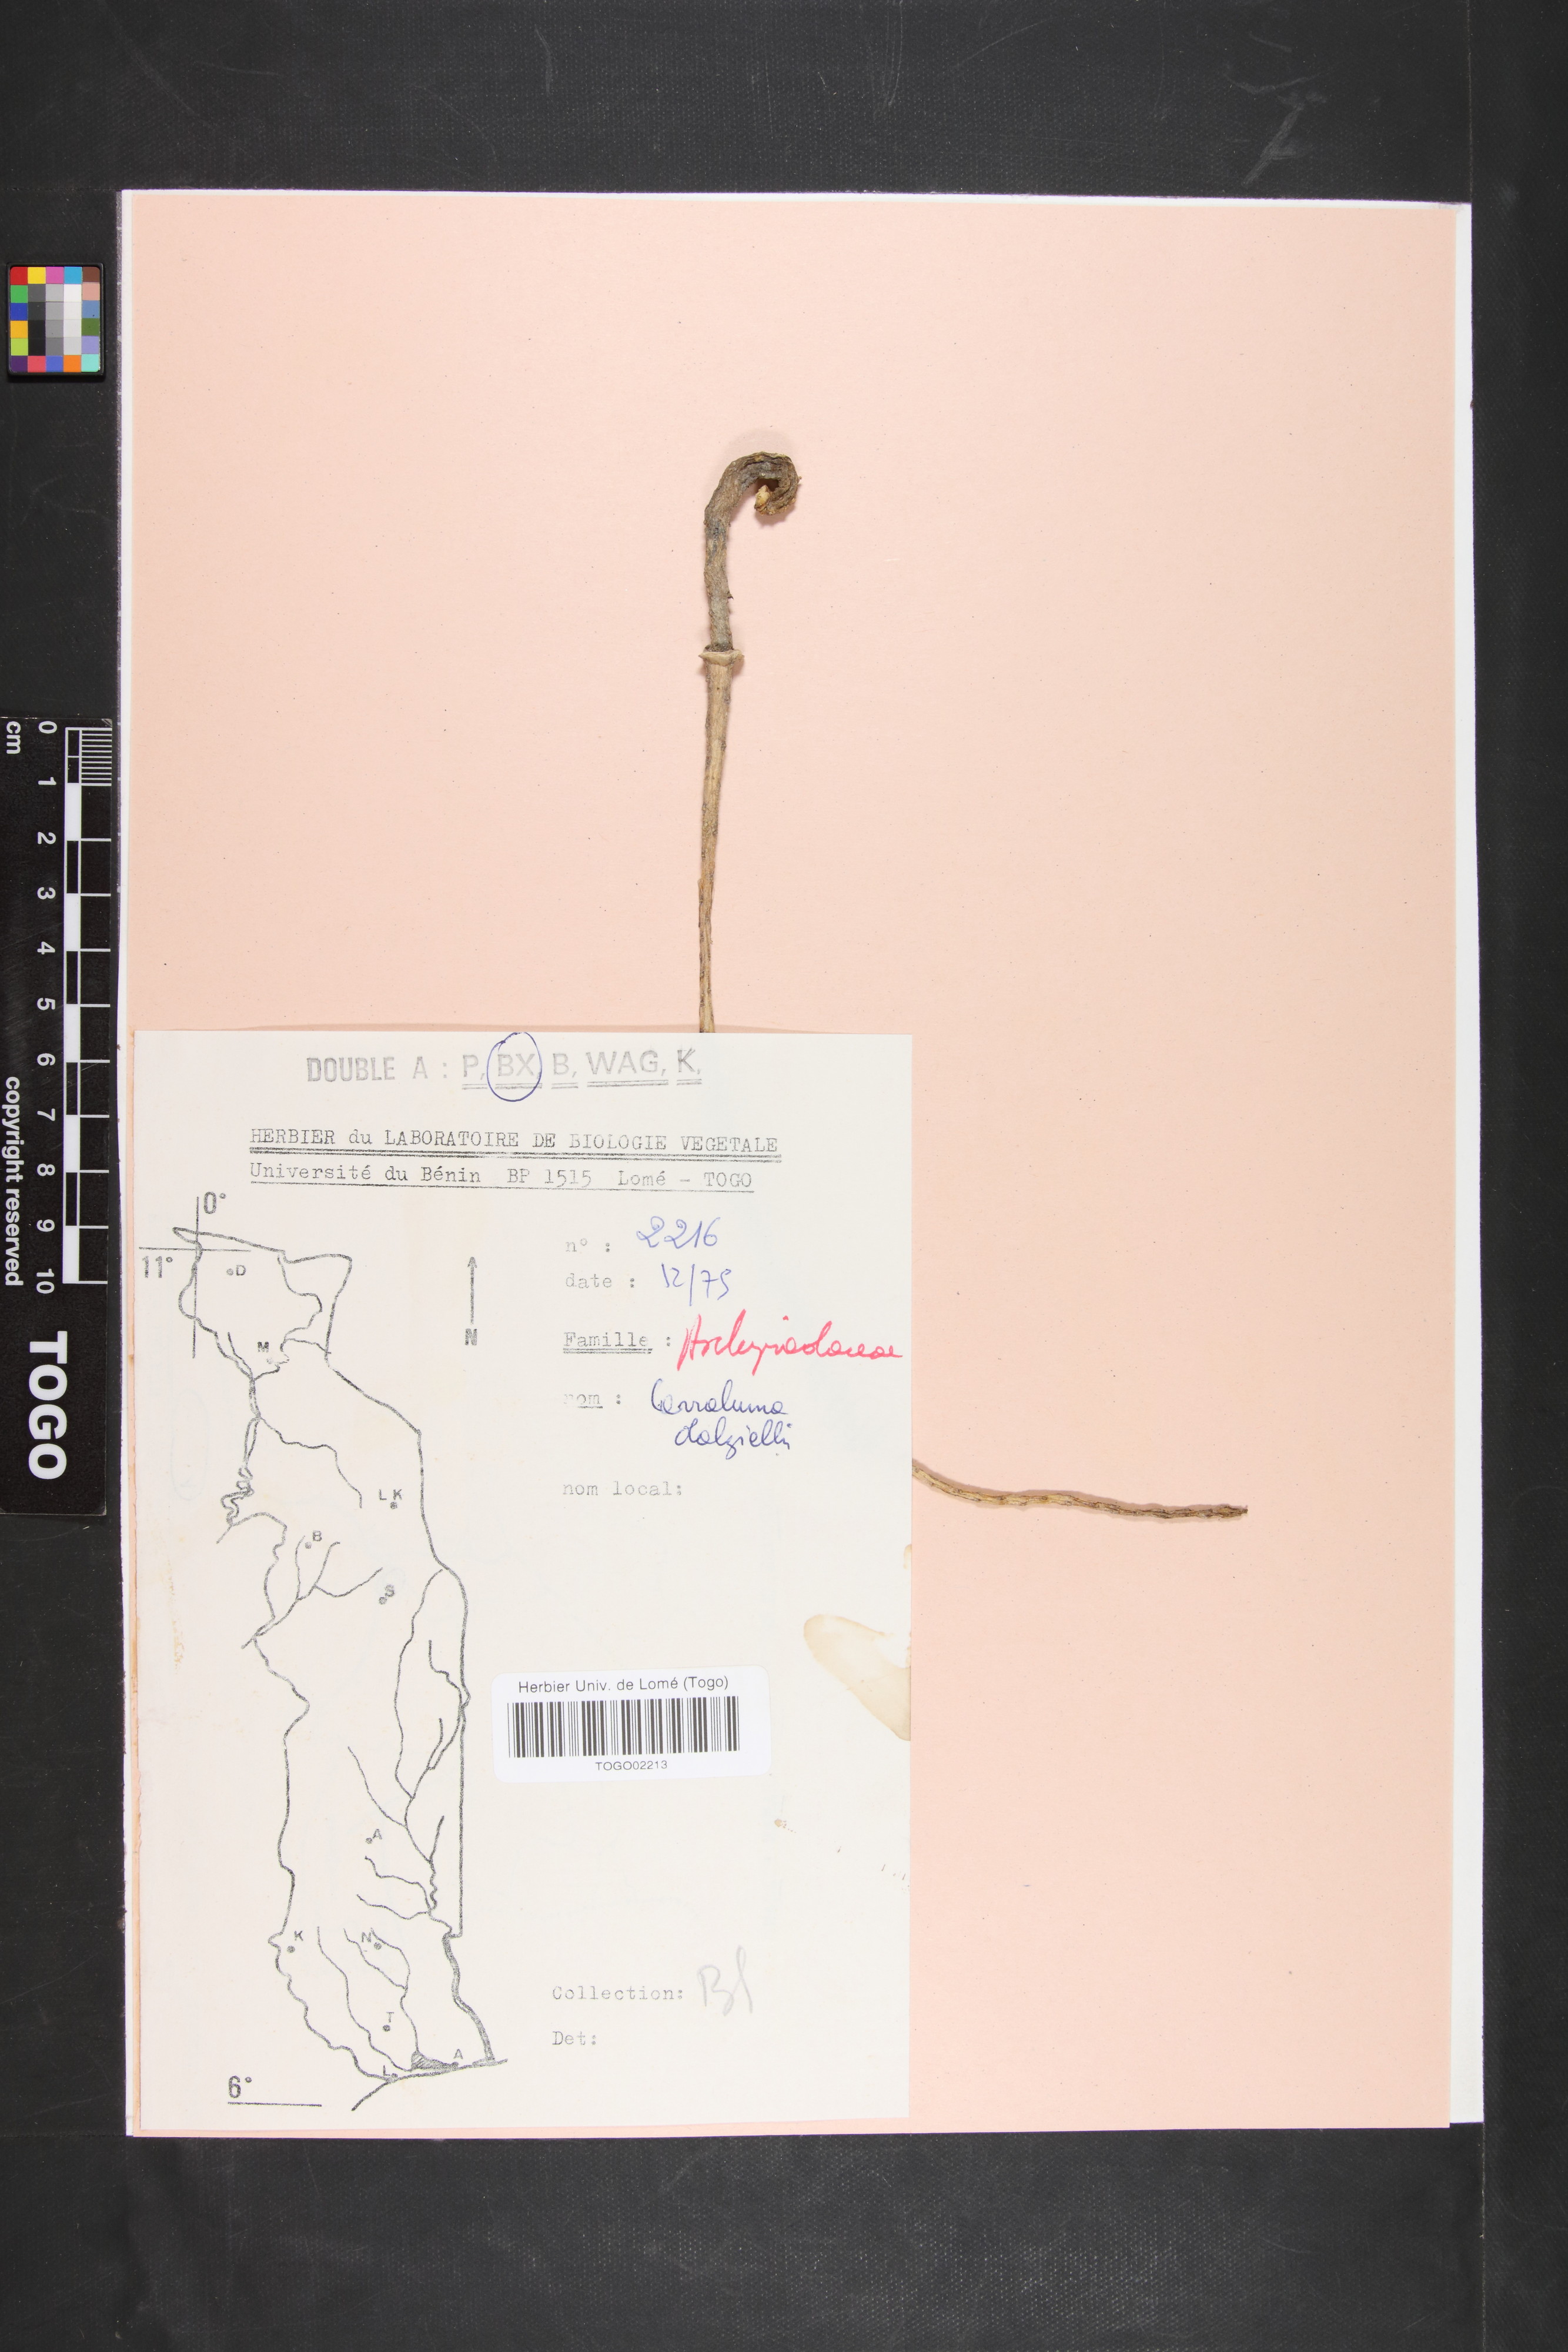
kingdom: Plantae
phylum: Tracheophyta
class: Magnoliopsida
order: Gentianales
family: Apocynaceae
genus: Calotropis
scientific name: Calotropis procera
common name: Roostertree
